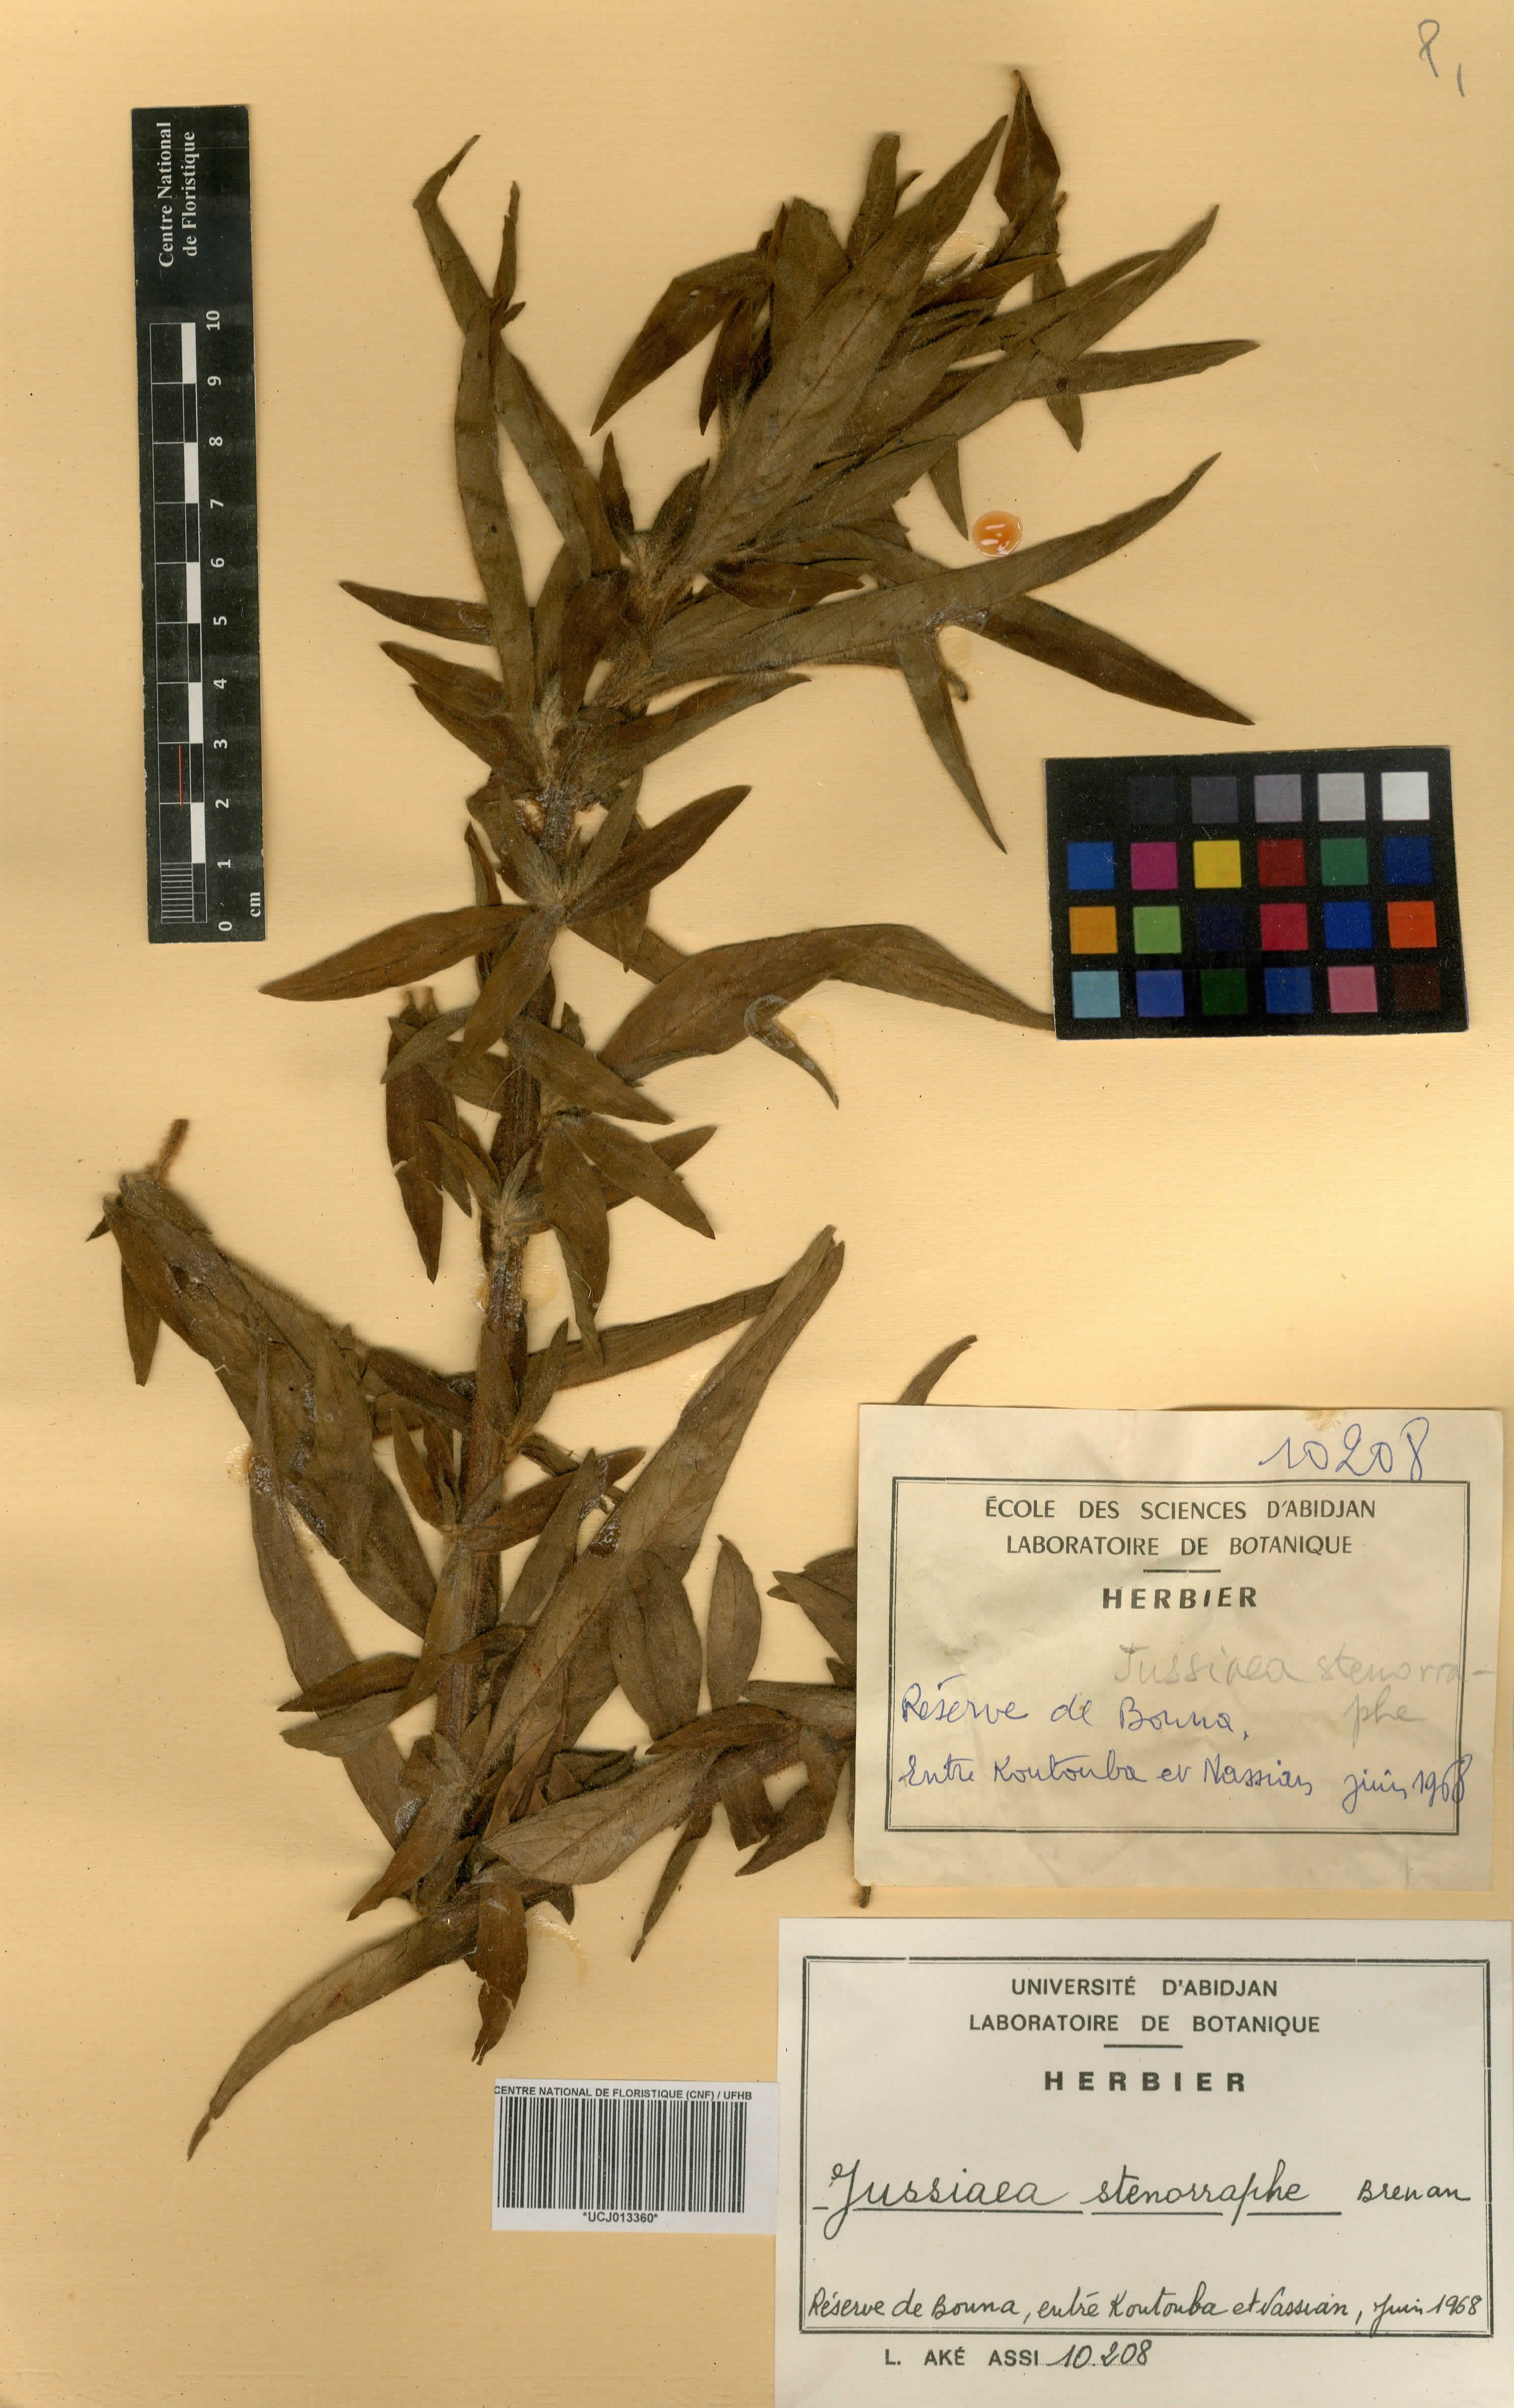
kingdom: Plantae
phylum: Tracheophyta
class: Magnoliopsida
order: Myrtales
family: Onagraceae
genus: Ludwigia
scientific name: Ludwigia stenorraphe
